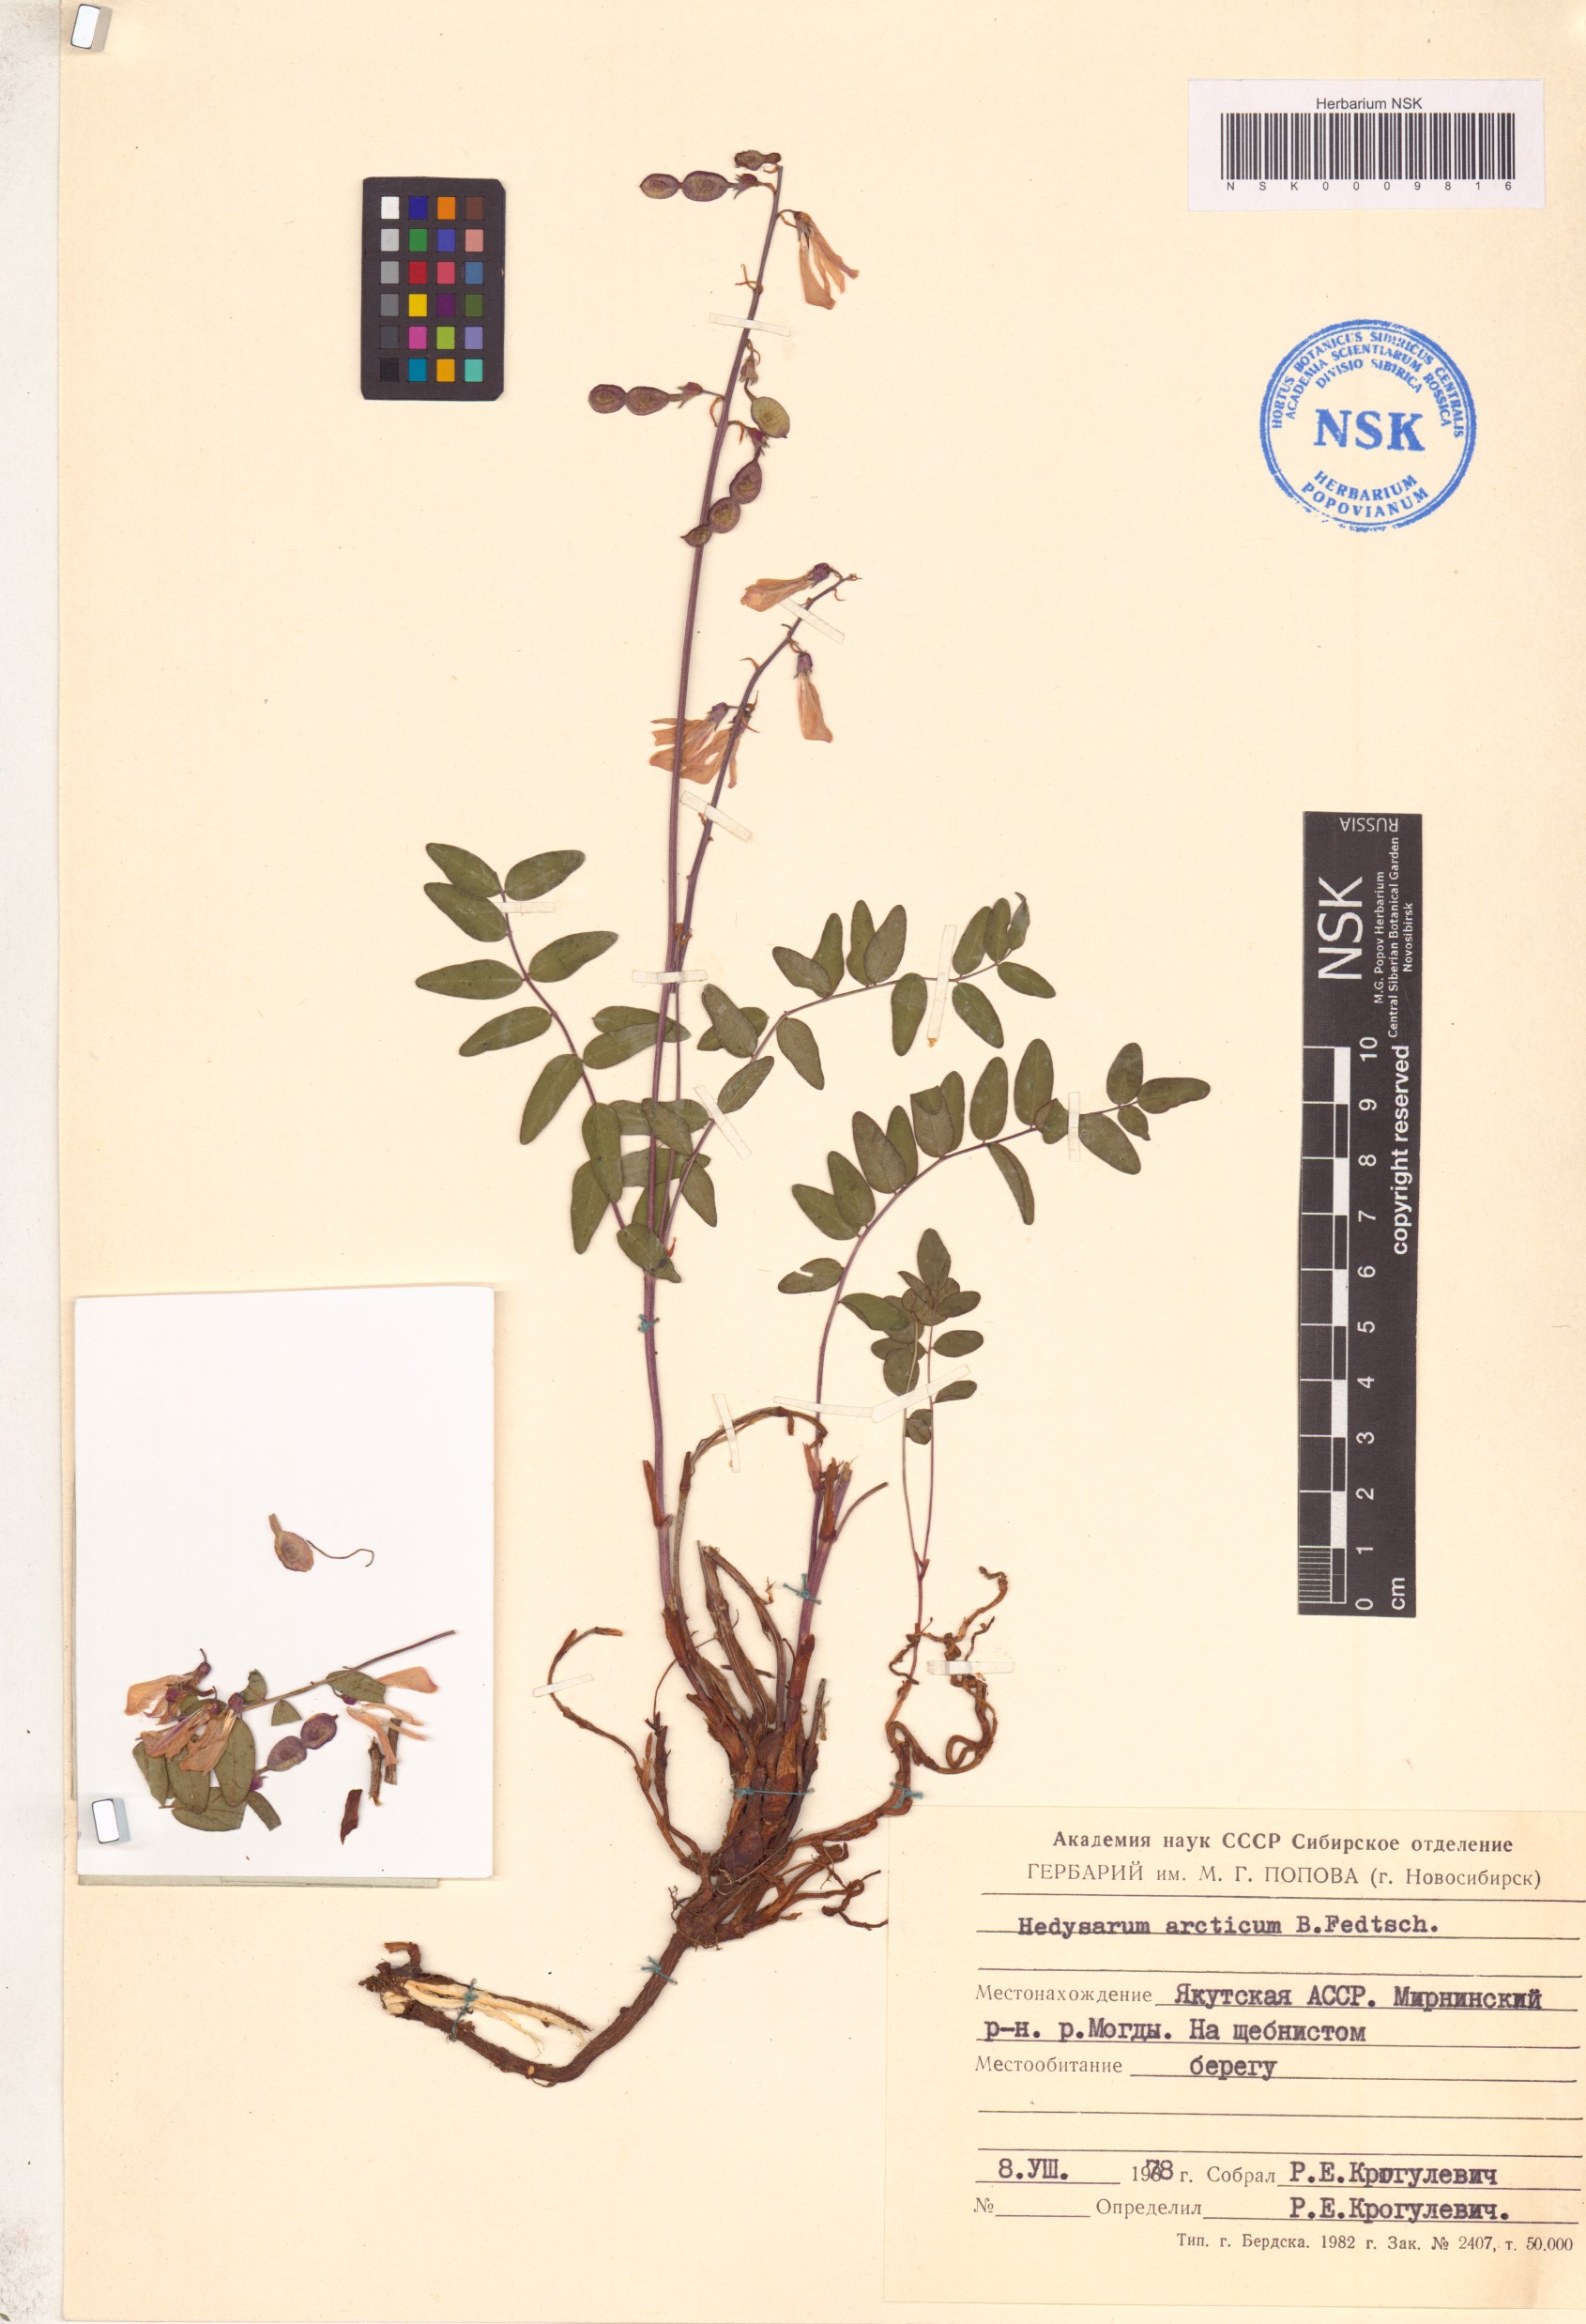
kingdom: Plantae
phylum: Tracheophyta
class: Magnoliopsida
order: Fabales
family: Fabaceae
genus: Hedysarum
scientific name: Hedysarum hedysaroides
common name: Alpine french-honeysuckle
